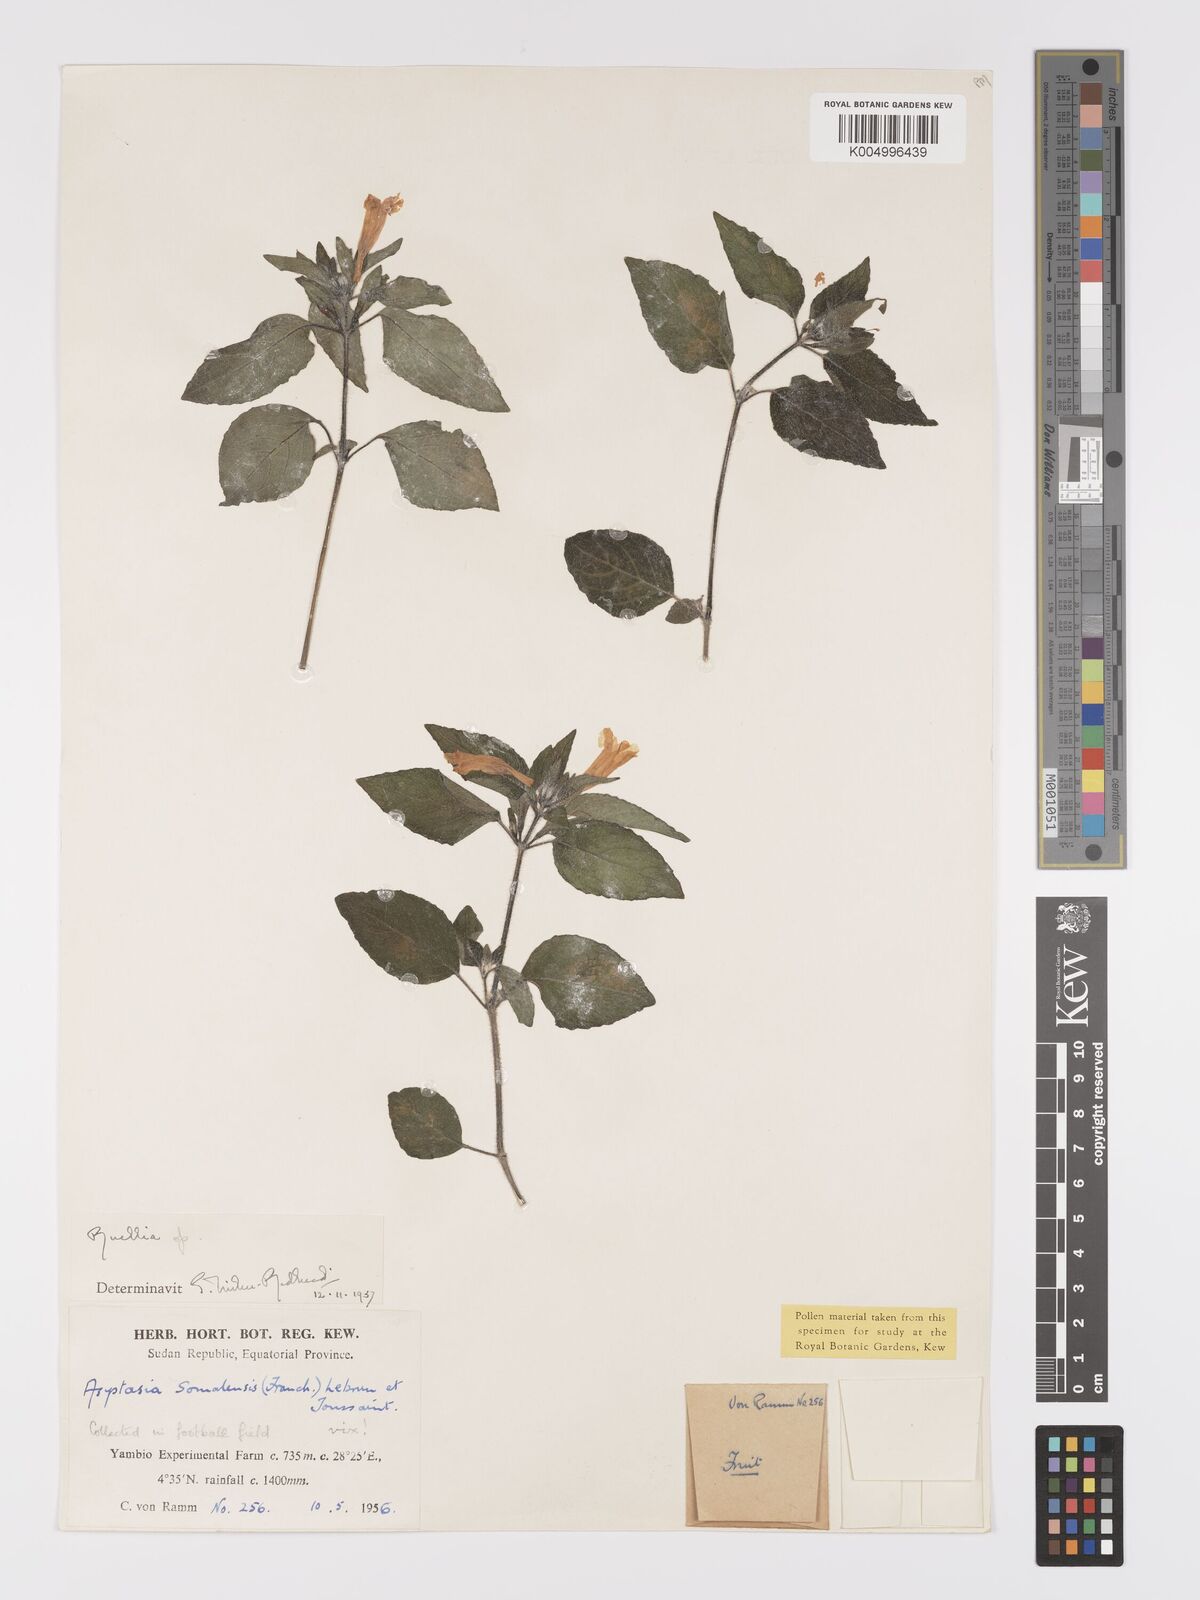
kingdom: Plantae
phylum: Tracheophyta
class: Magnoliopsida
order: Lamiales
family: Acanthaceae
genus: Ruellia
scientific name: Ruellia praetermissa
